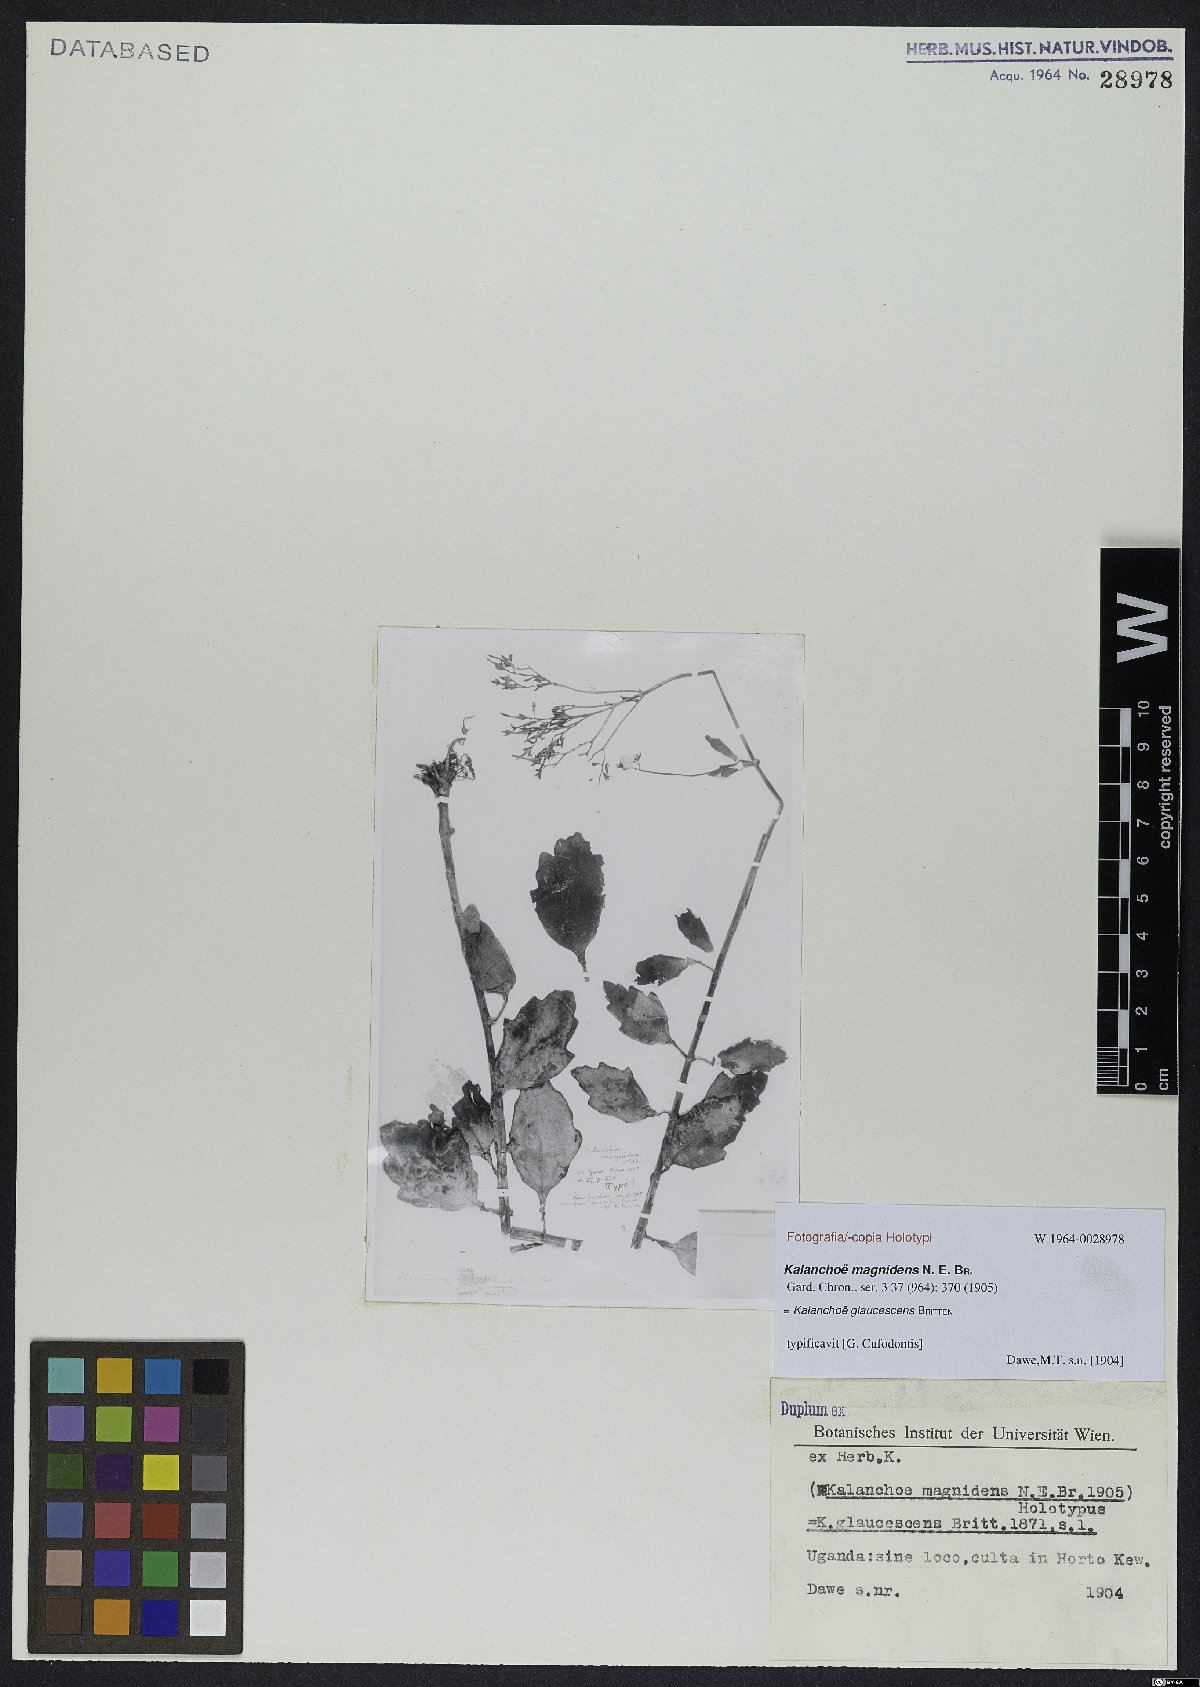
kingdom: Plantae
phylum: Tracheophyta
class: Magnoliopsida
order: Saxifragales
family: Crassulaceae
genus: Kalanchoe
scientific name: Kalanchoe glaucescens
